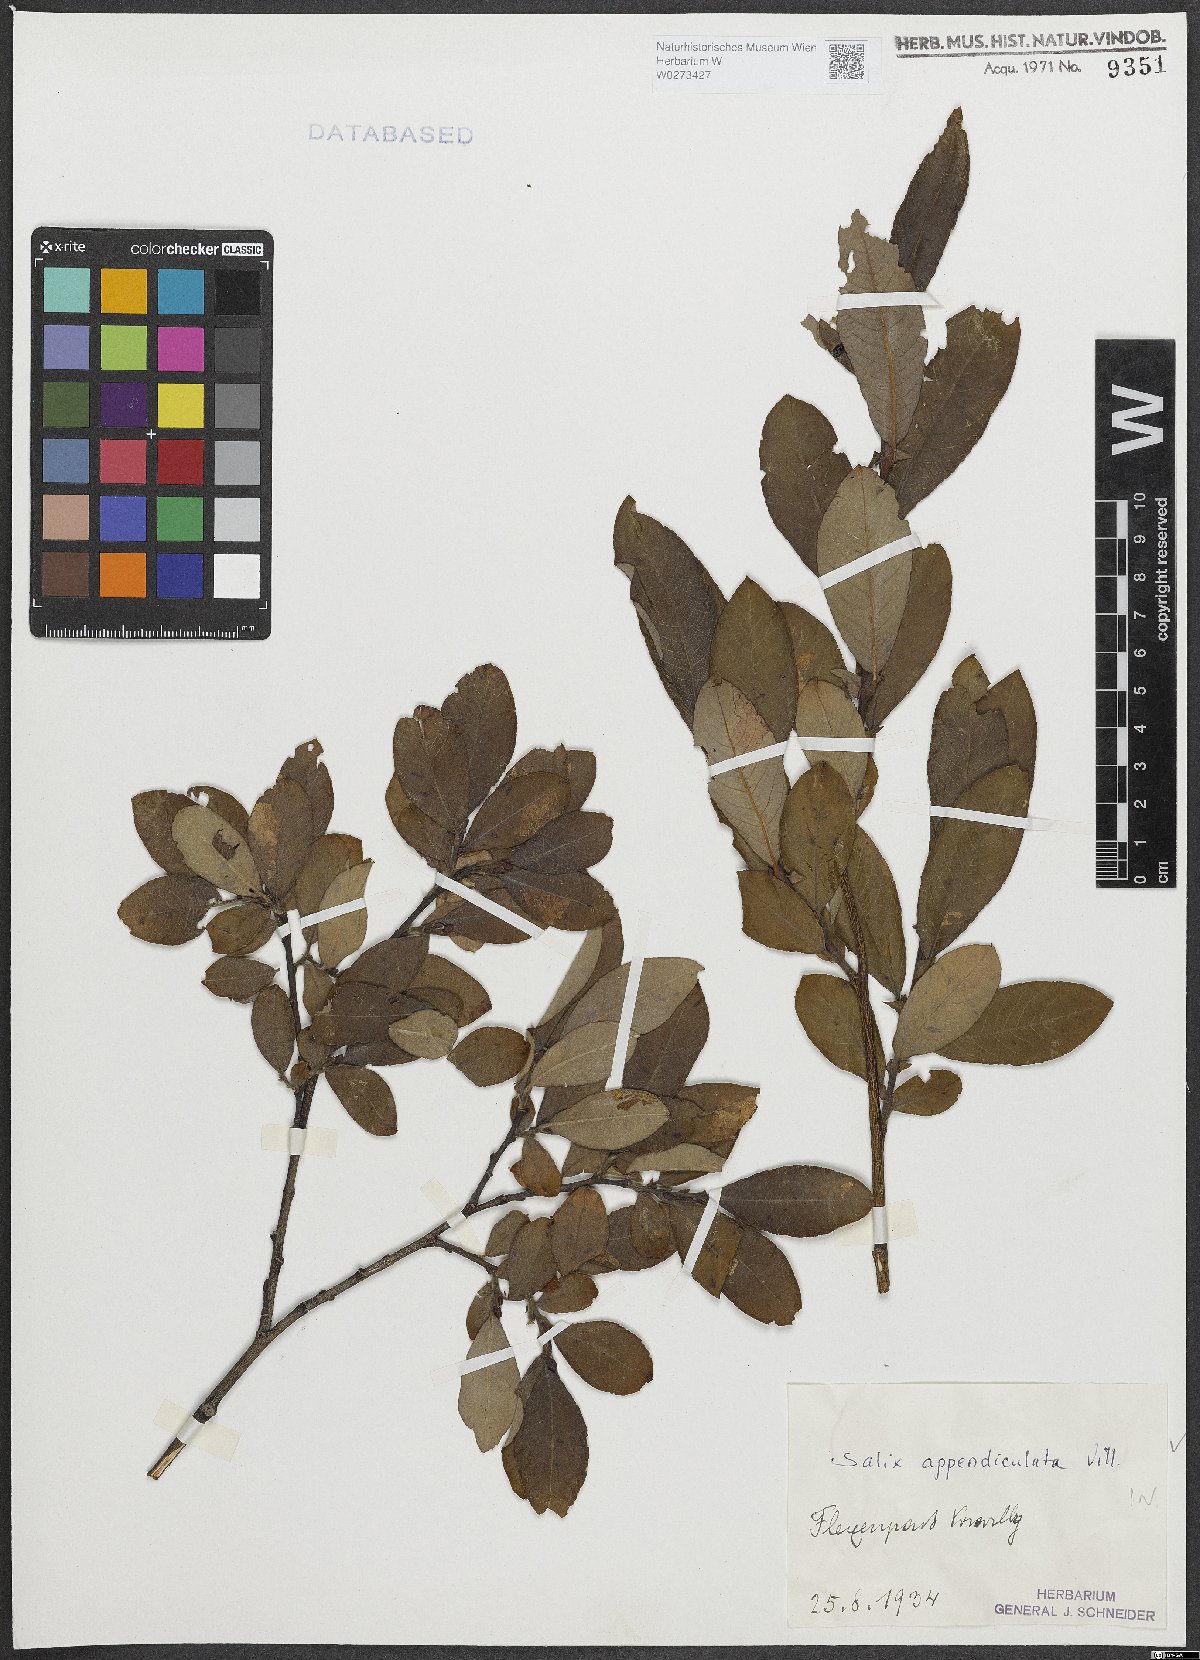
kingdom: Plantae
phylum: Tracheophyta
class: Magnoliopsida
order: Malpighiales
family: Salicaceae
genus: Salix
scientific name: Salix appendiculata
